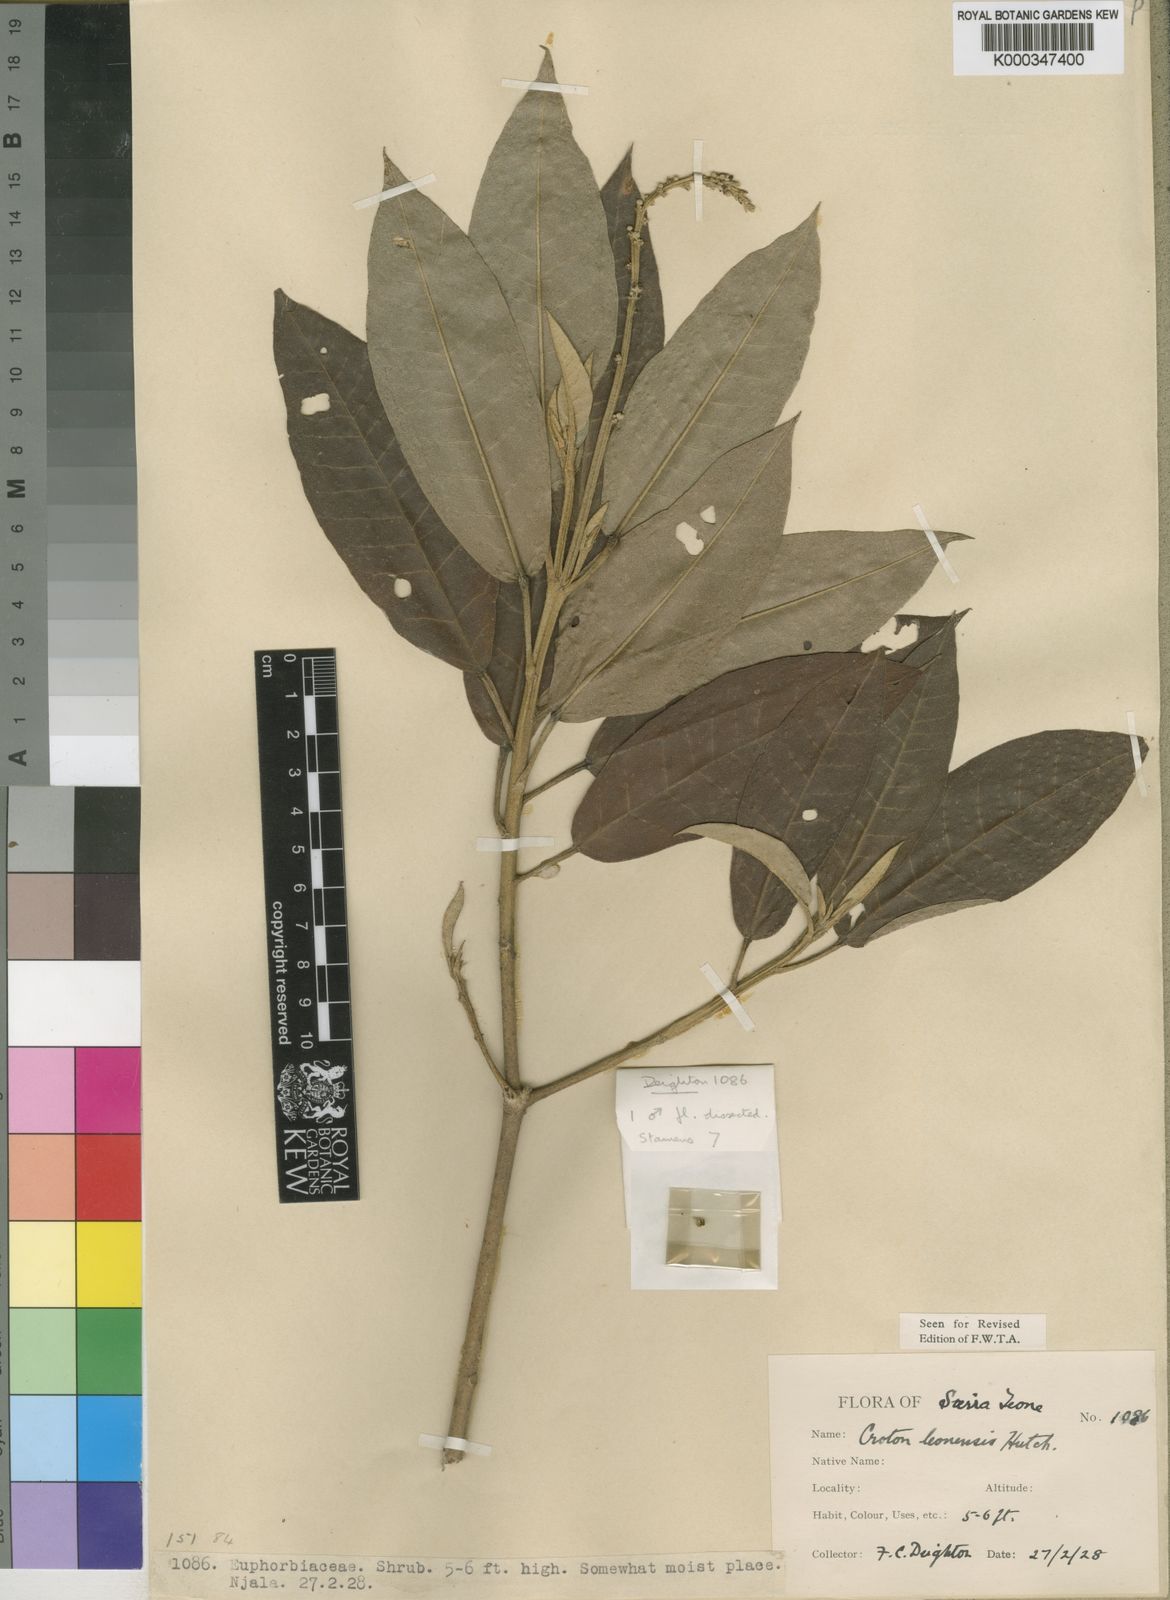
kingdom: Plantae
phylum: Tracheophyta
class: Magnoliopsida
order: Malpighiales
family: Euphorbiaceae
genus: Croton
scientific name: Croton leonensis
